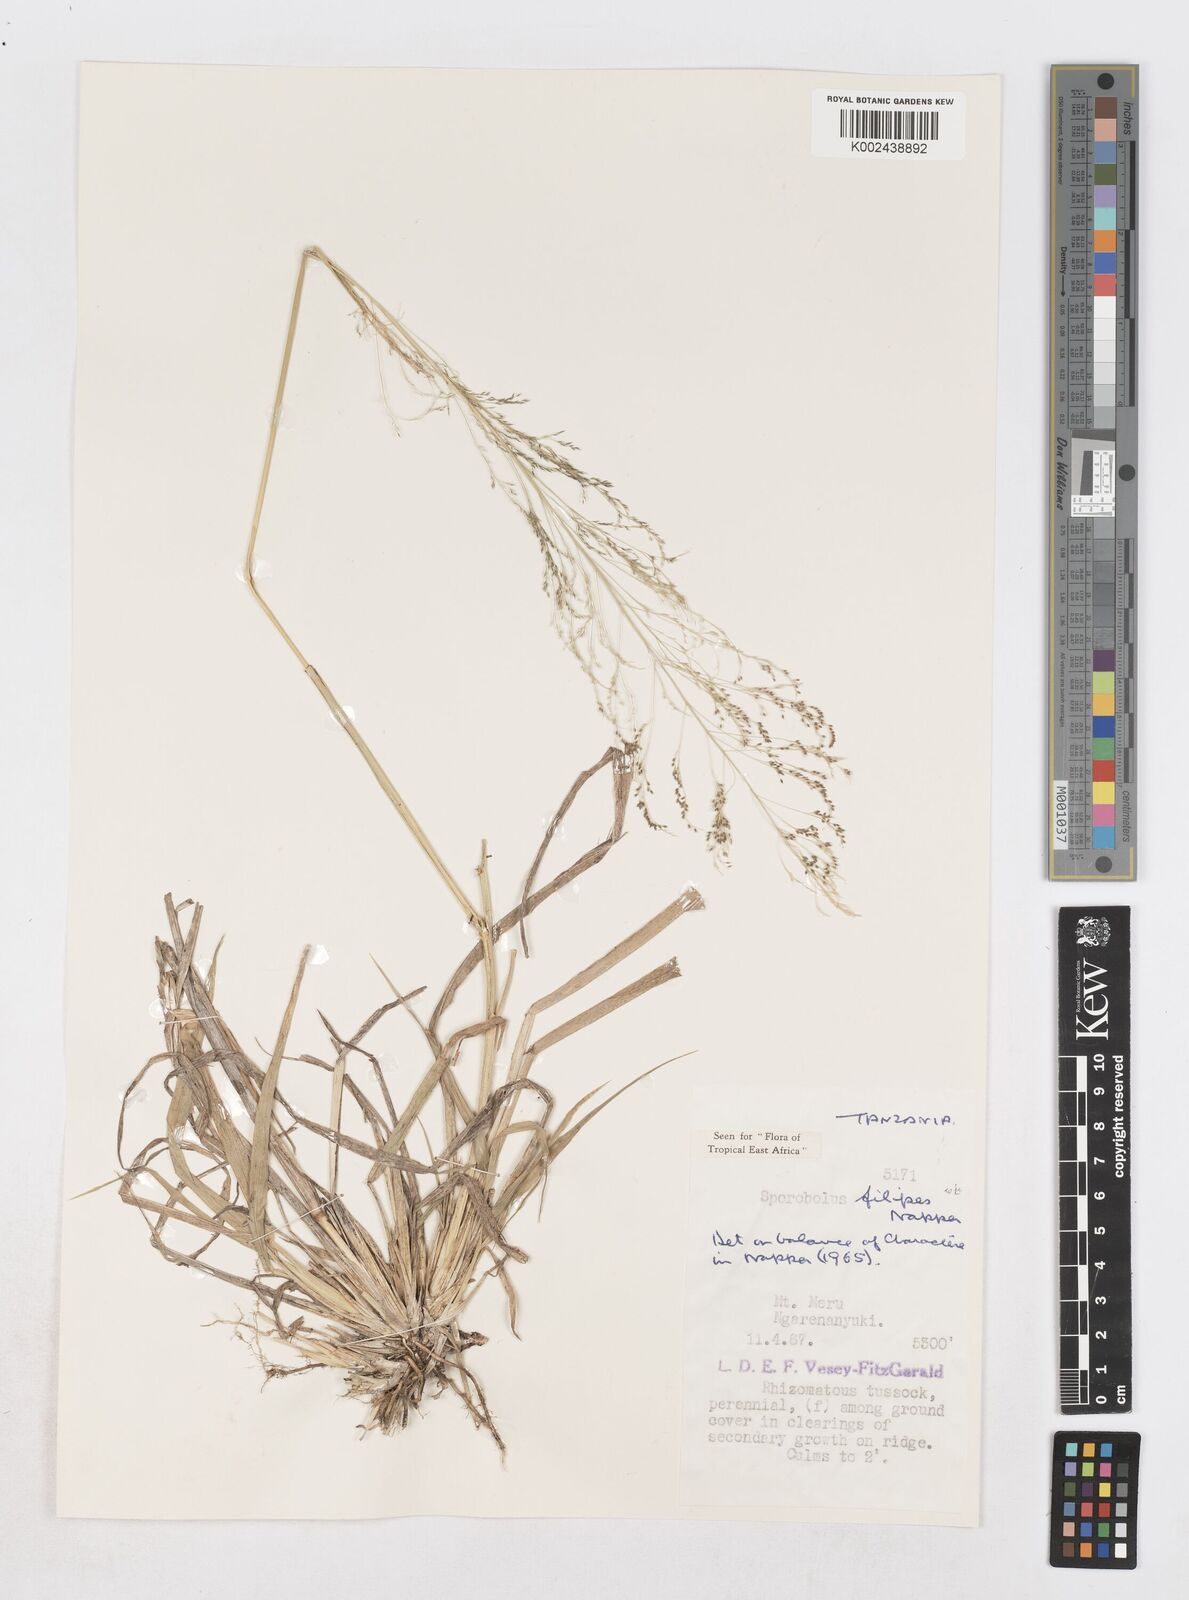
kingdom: Plantae
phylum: Tracheophyta
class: Liliopsida
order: Poales
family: Poaceae
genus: Sporobolus
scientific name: Sporobolus agrostoides
